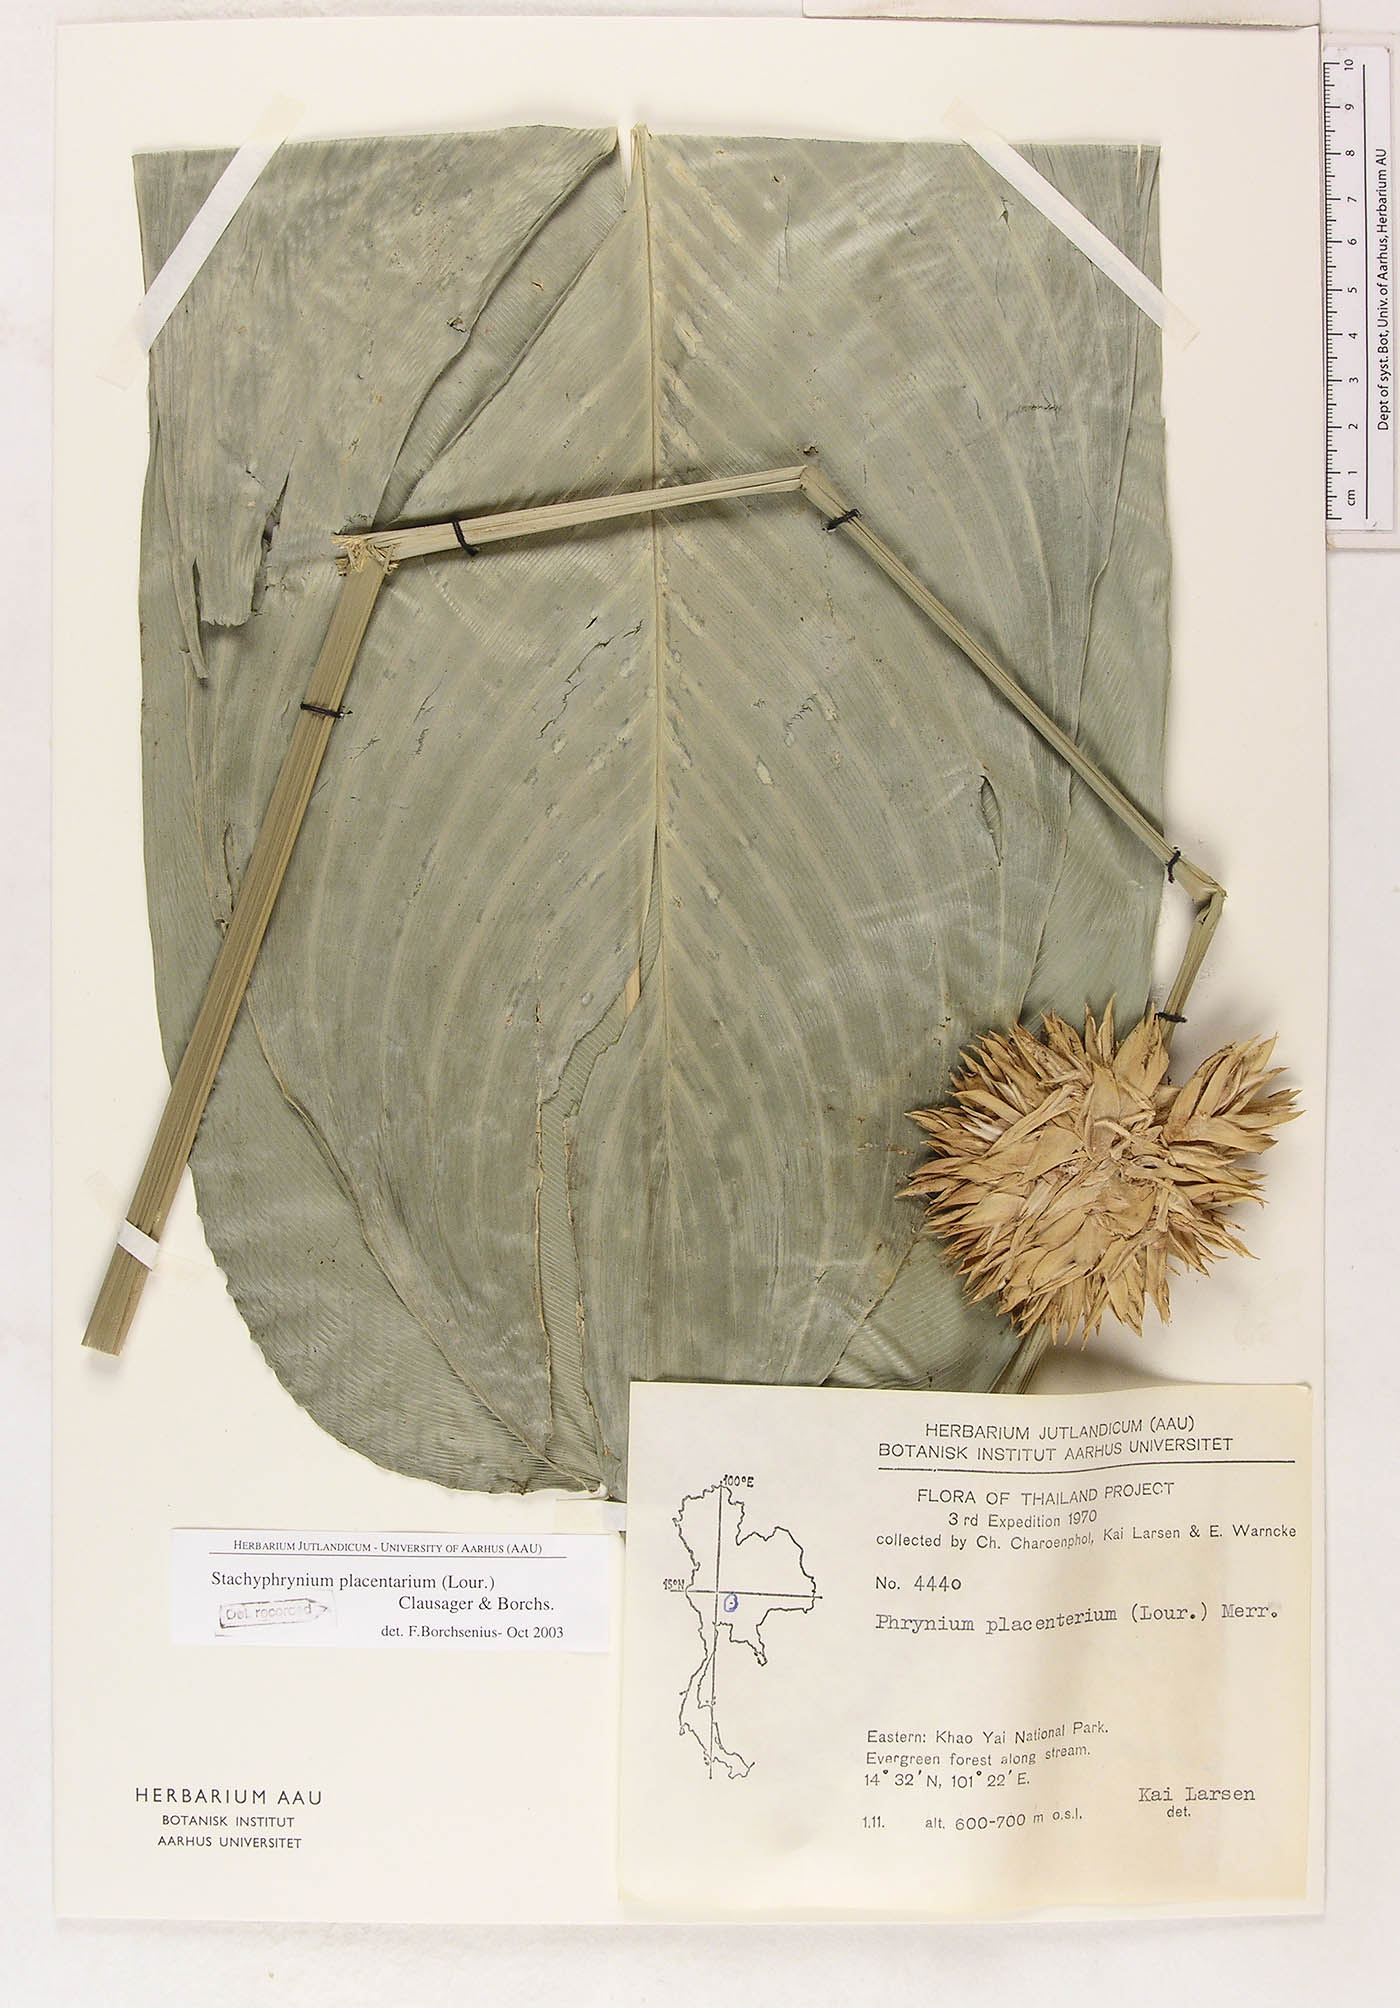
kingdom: Plantae
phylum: Tracheophyta
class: Liliopsida
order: Zingiberales
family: Marantaceae
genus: Stachyphrynium
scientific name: Stachyphrynium placentarium
